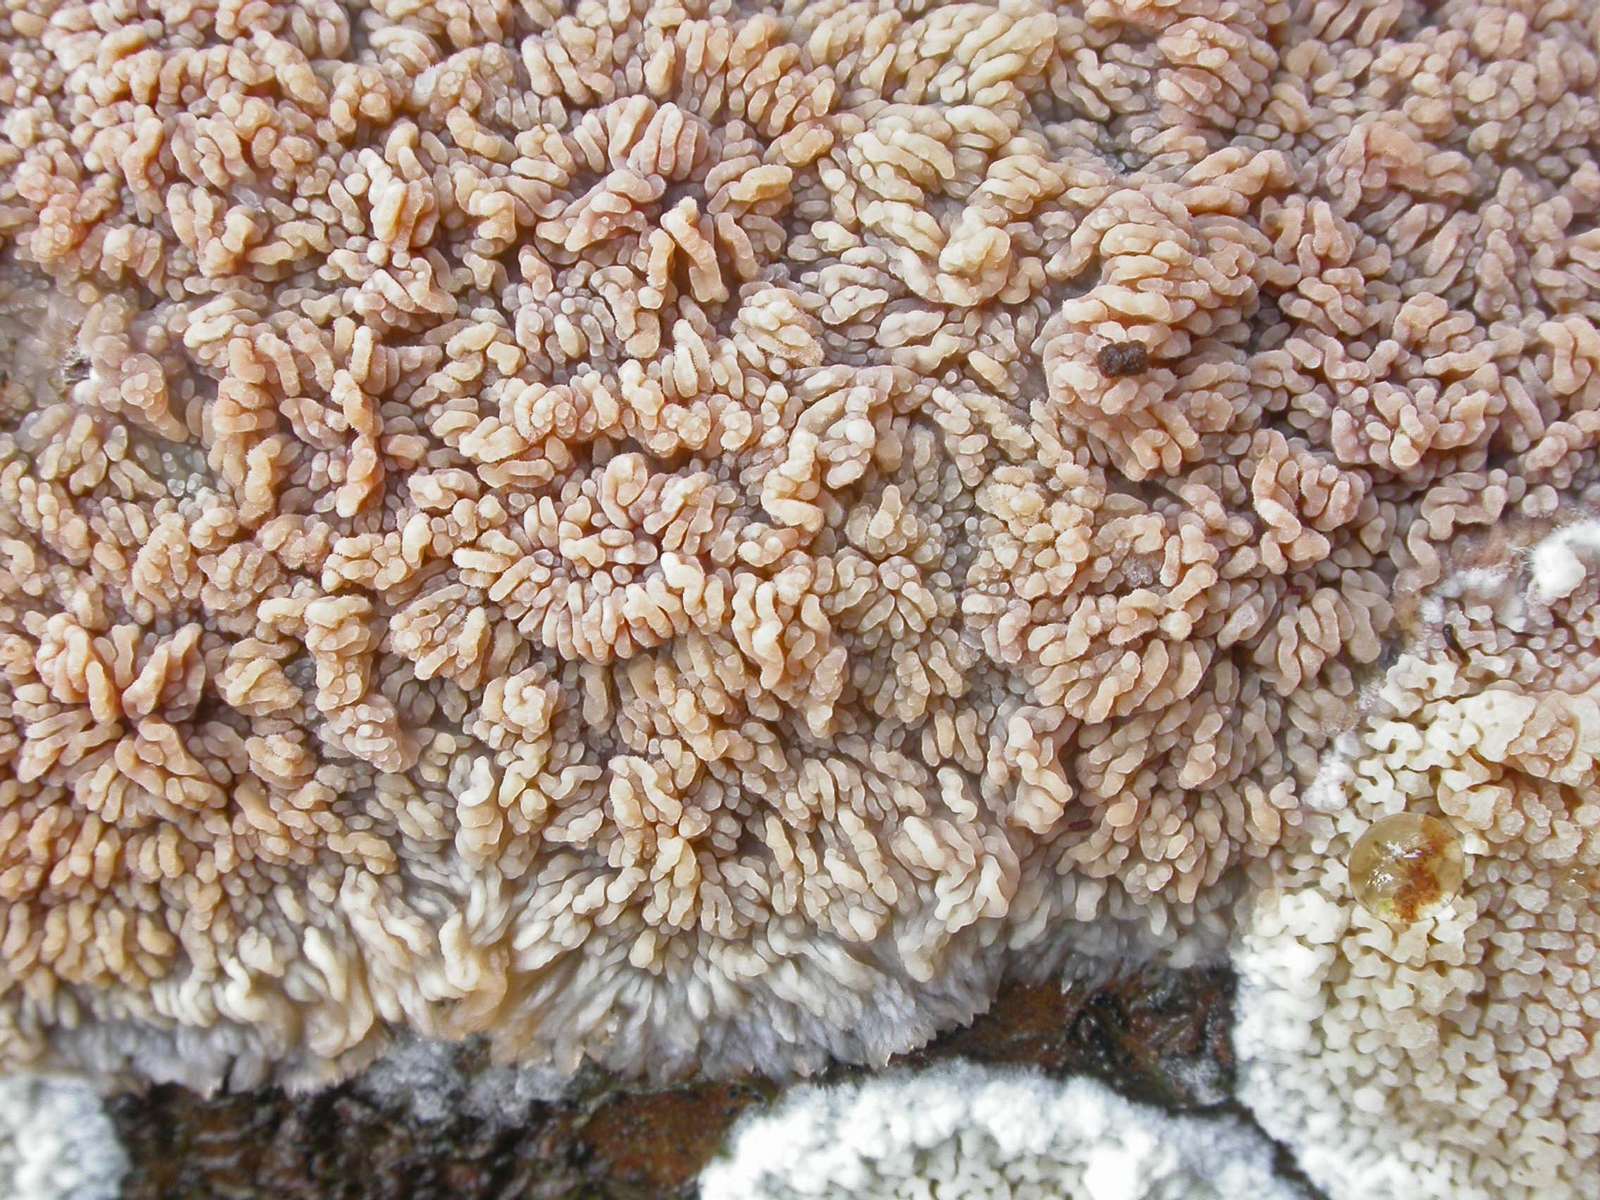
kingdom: Fungi
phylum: Basidiomycota
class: Agaricomycetes
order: Polyporales
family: Meruliaceae
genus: Phlebia
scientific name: Phlebia rufa
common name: ege-åresvamp
